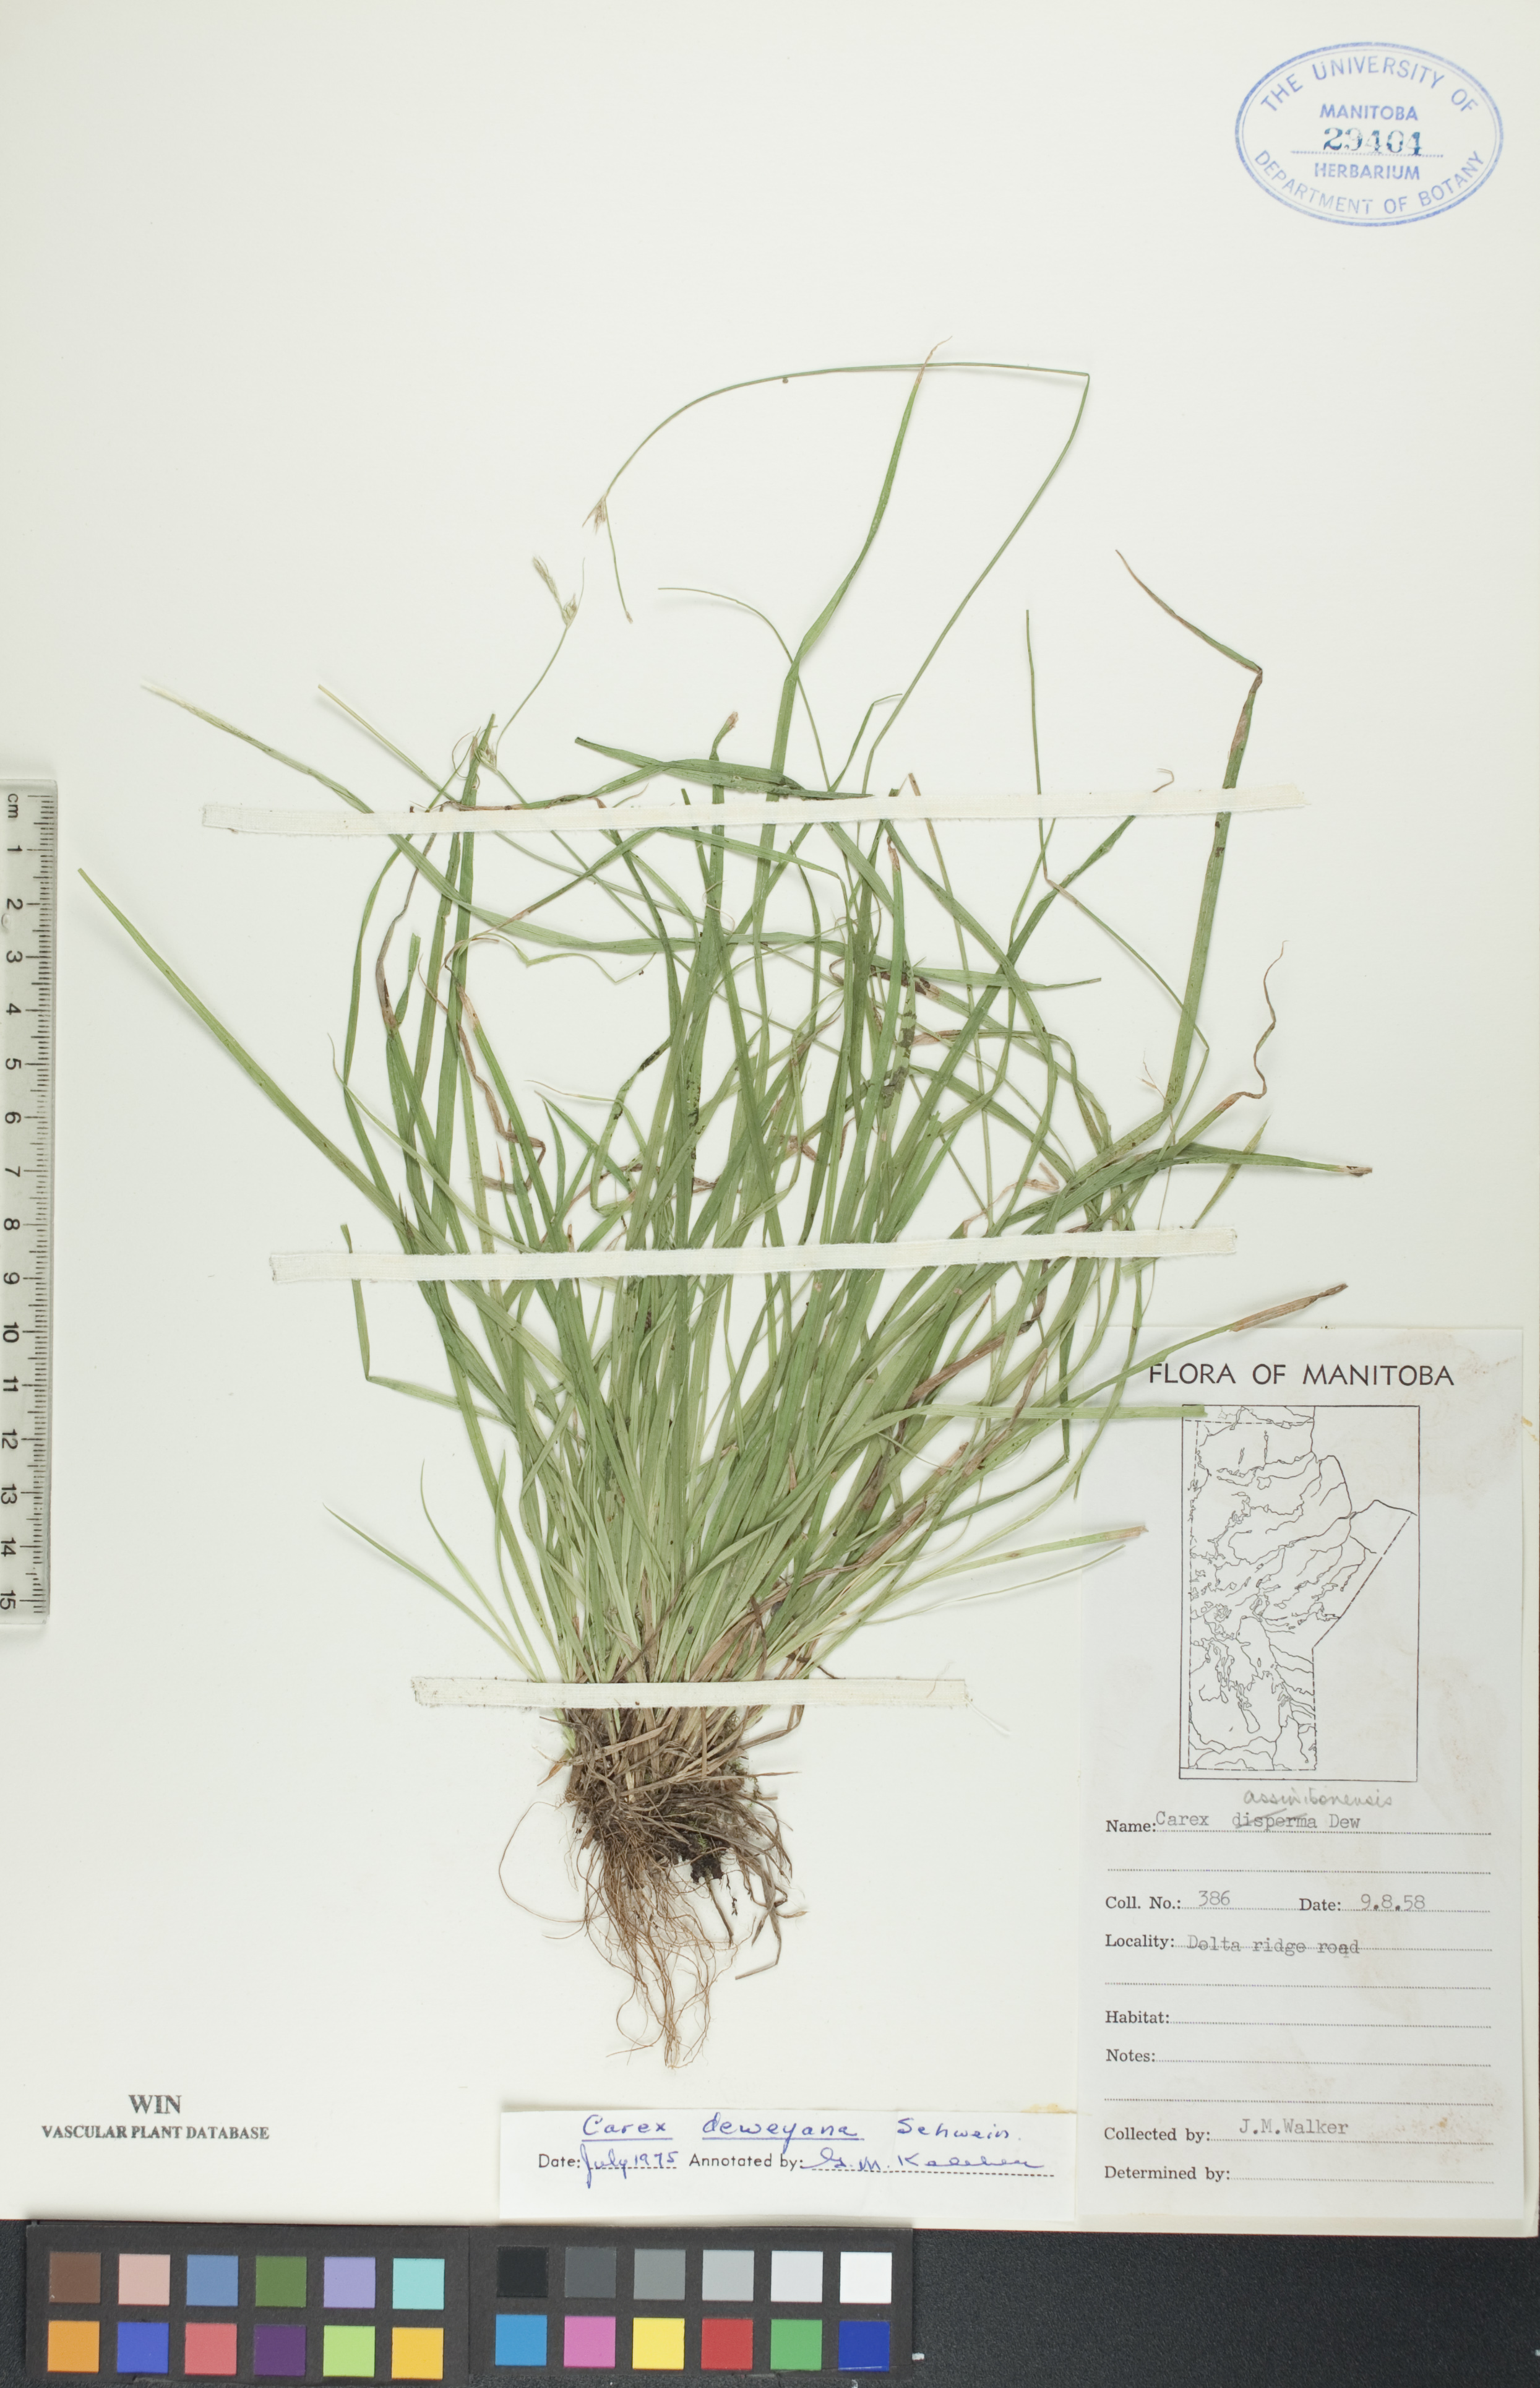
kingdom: Plantae
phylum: Tracheophyta
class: Liliopsida
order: Poales
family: Cyperaceae
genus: Carex
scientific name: Carex deweyana
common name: Dewey's sedge
